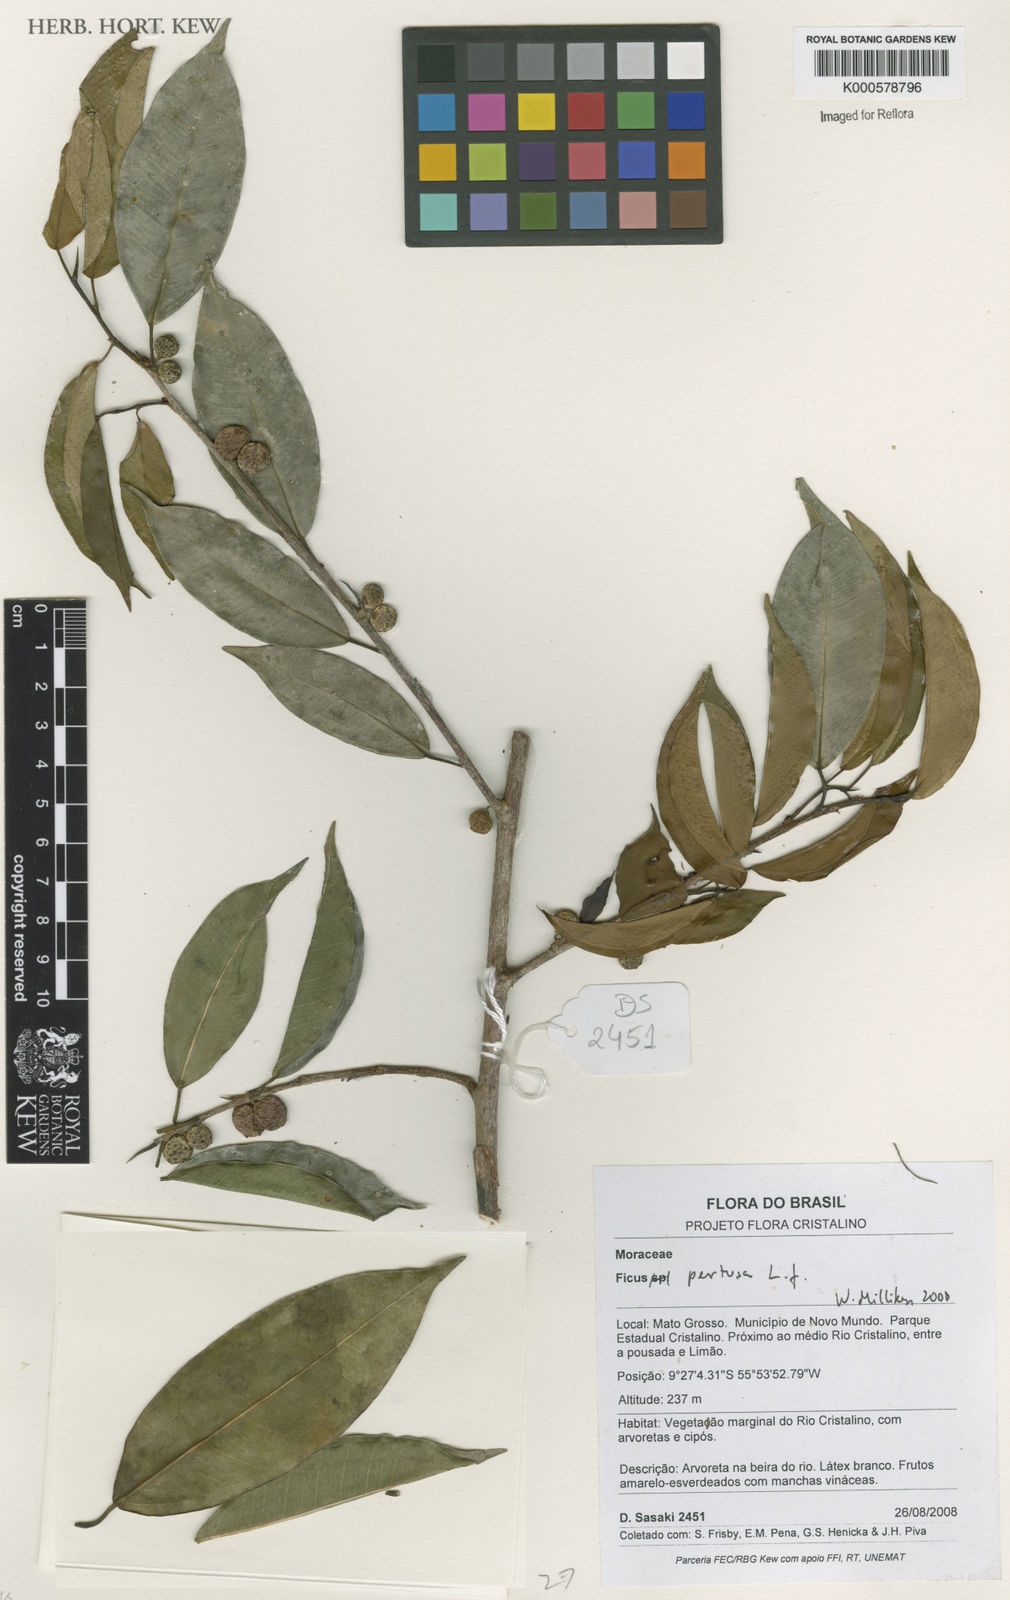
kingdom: Plantae
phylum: Tracheophyta
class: Magnoliopsida
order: Rosales
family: Moraceae
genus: Ficus
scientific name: Ficus pertusa
